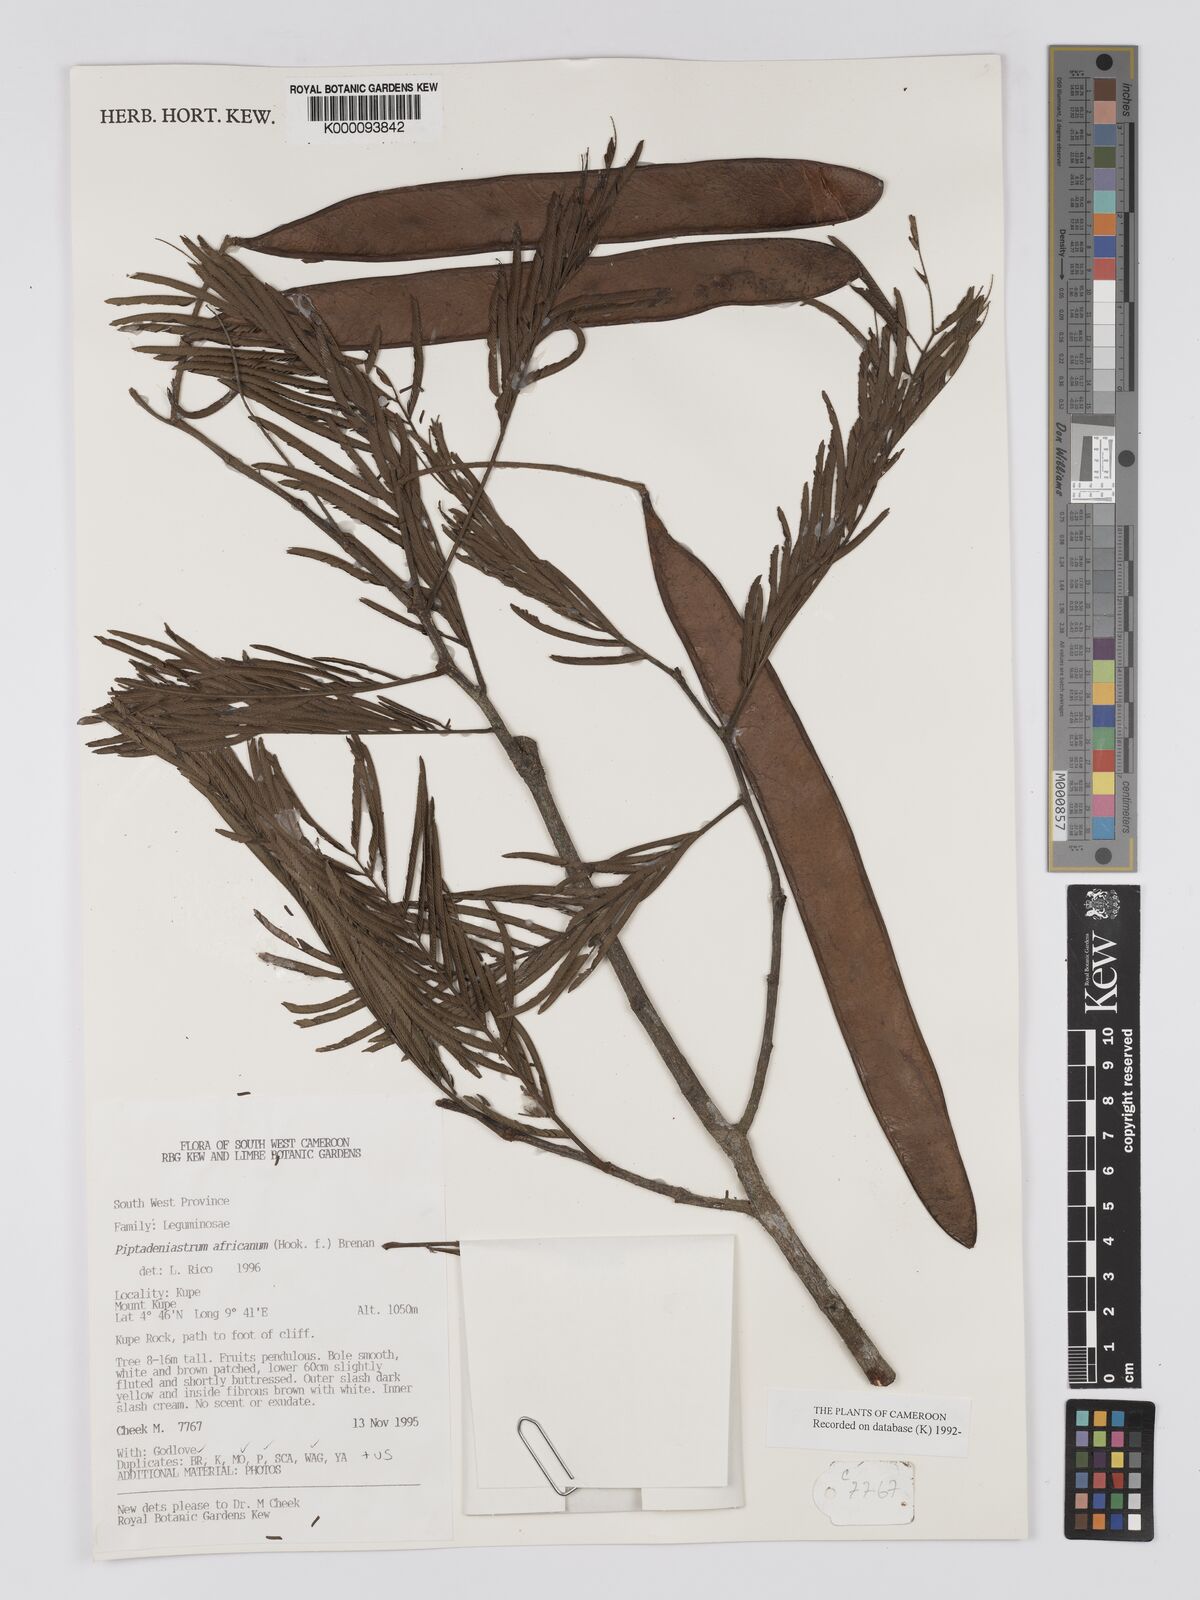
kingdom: Plantae
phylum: Tracheophyta
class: Magnoliopsida
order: Fabales
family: Fabaceae
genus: Piptadeniastrum
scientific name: Piptadeniastrum africanum
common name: African greenheart
